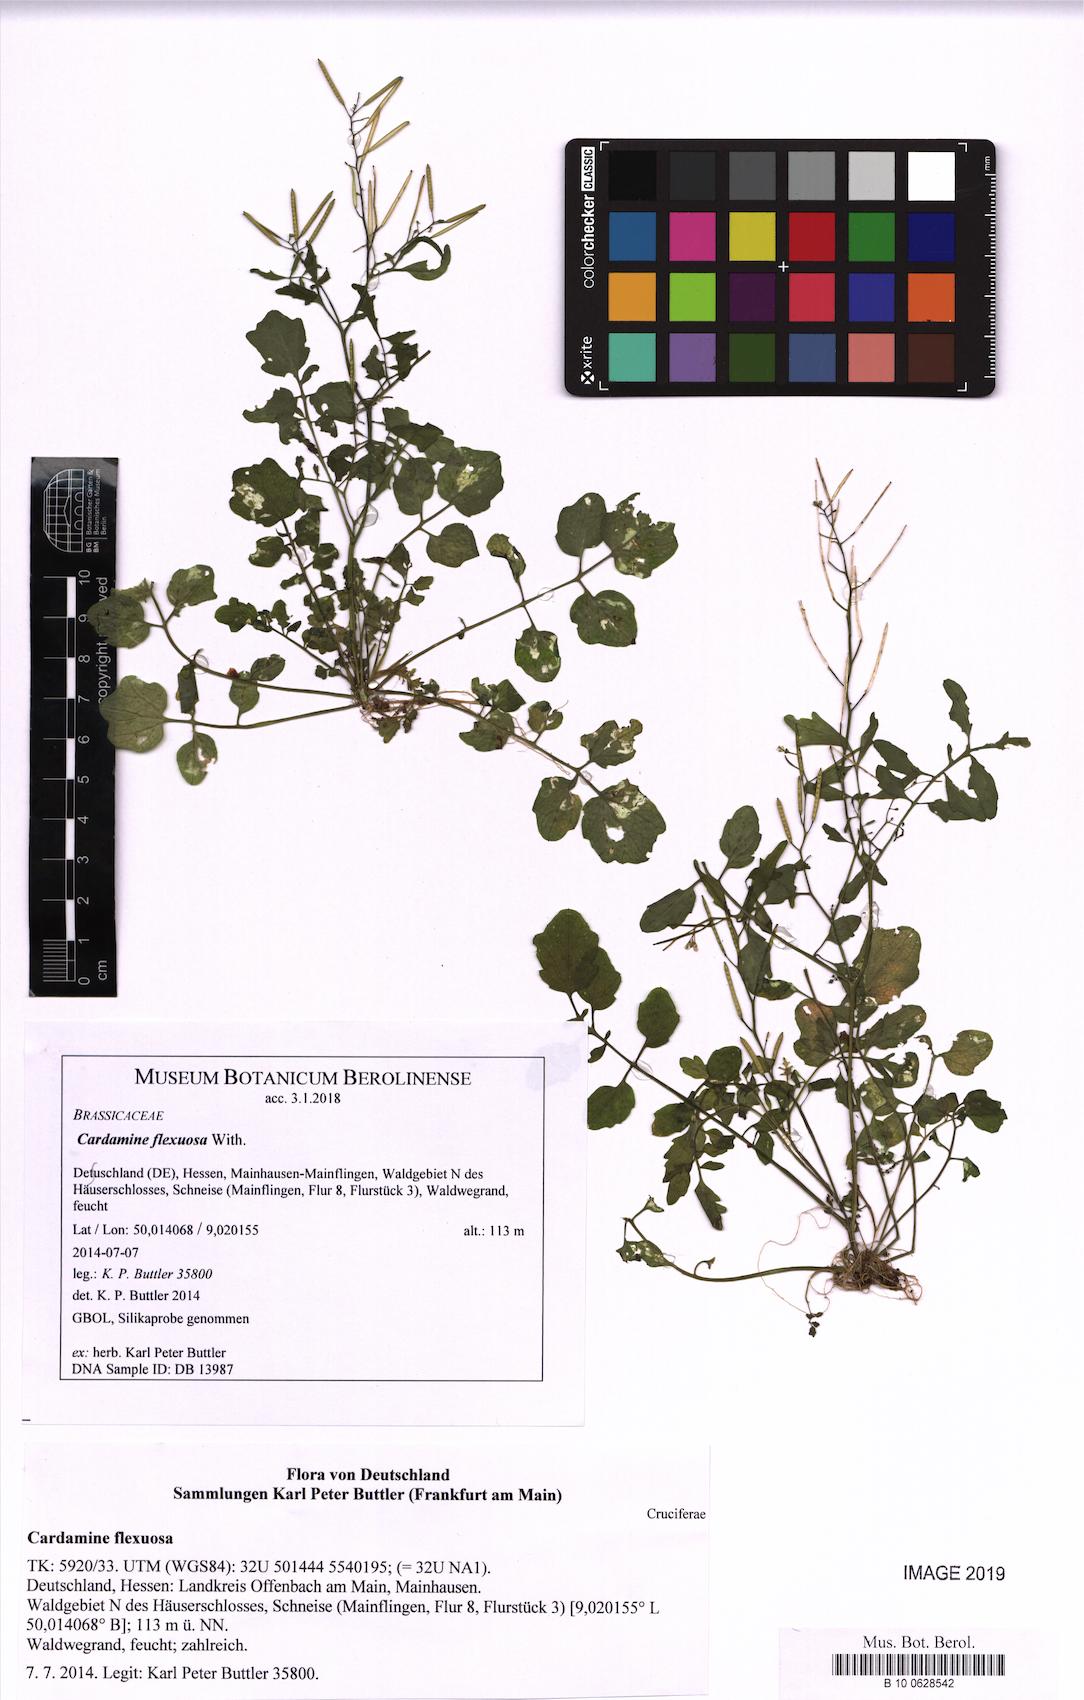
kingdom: Plantae
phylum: Tracheophyta
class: Magnoliopsida
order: Brassicales
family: Brassicaceae
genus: Cardamine
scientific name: Cardamine flexuosa
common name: Woodland bittercress
